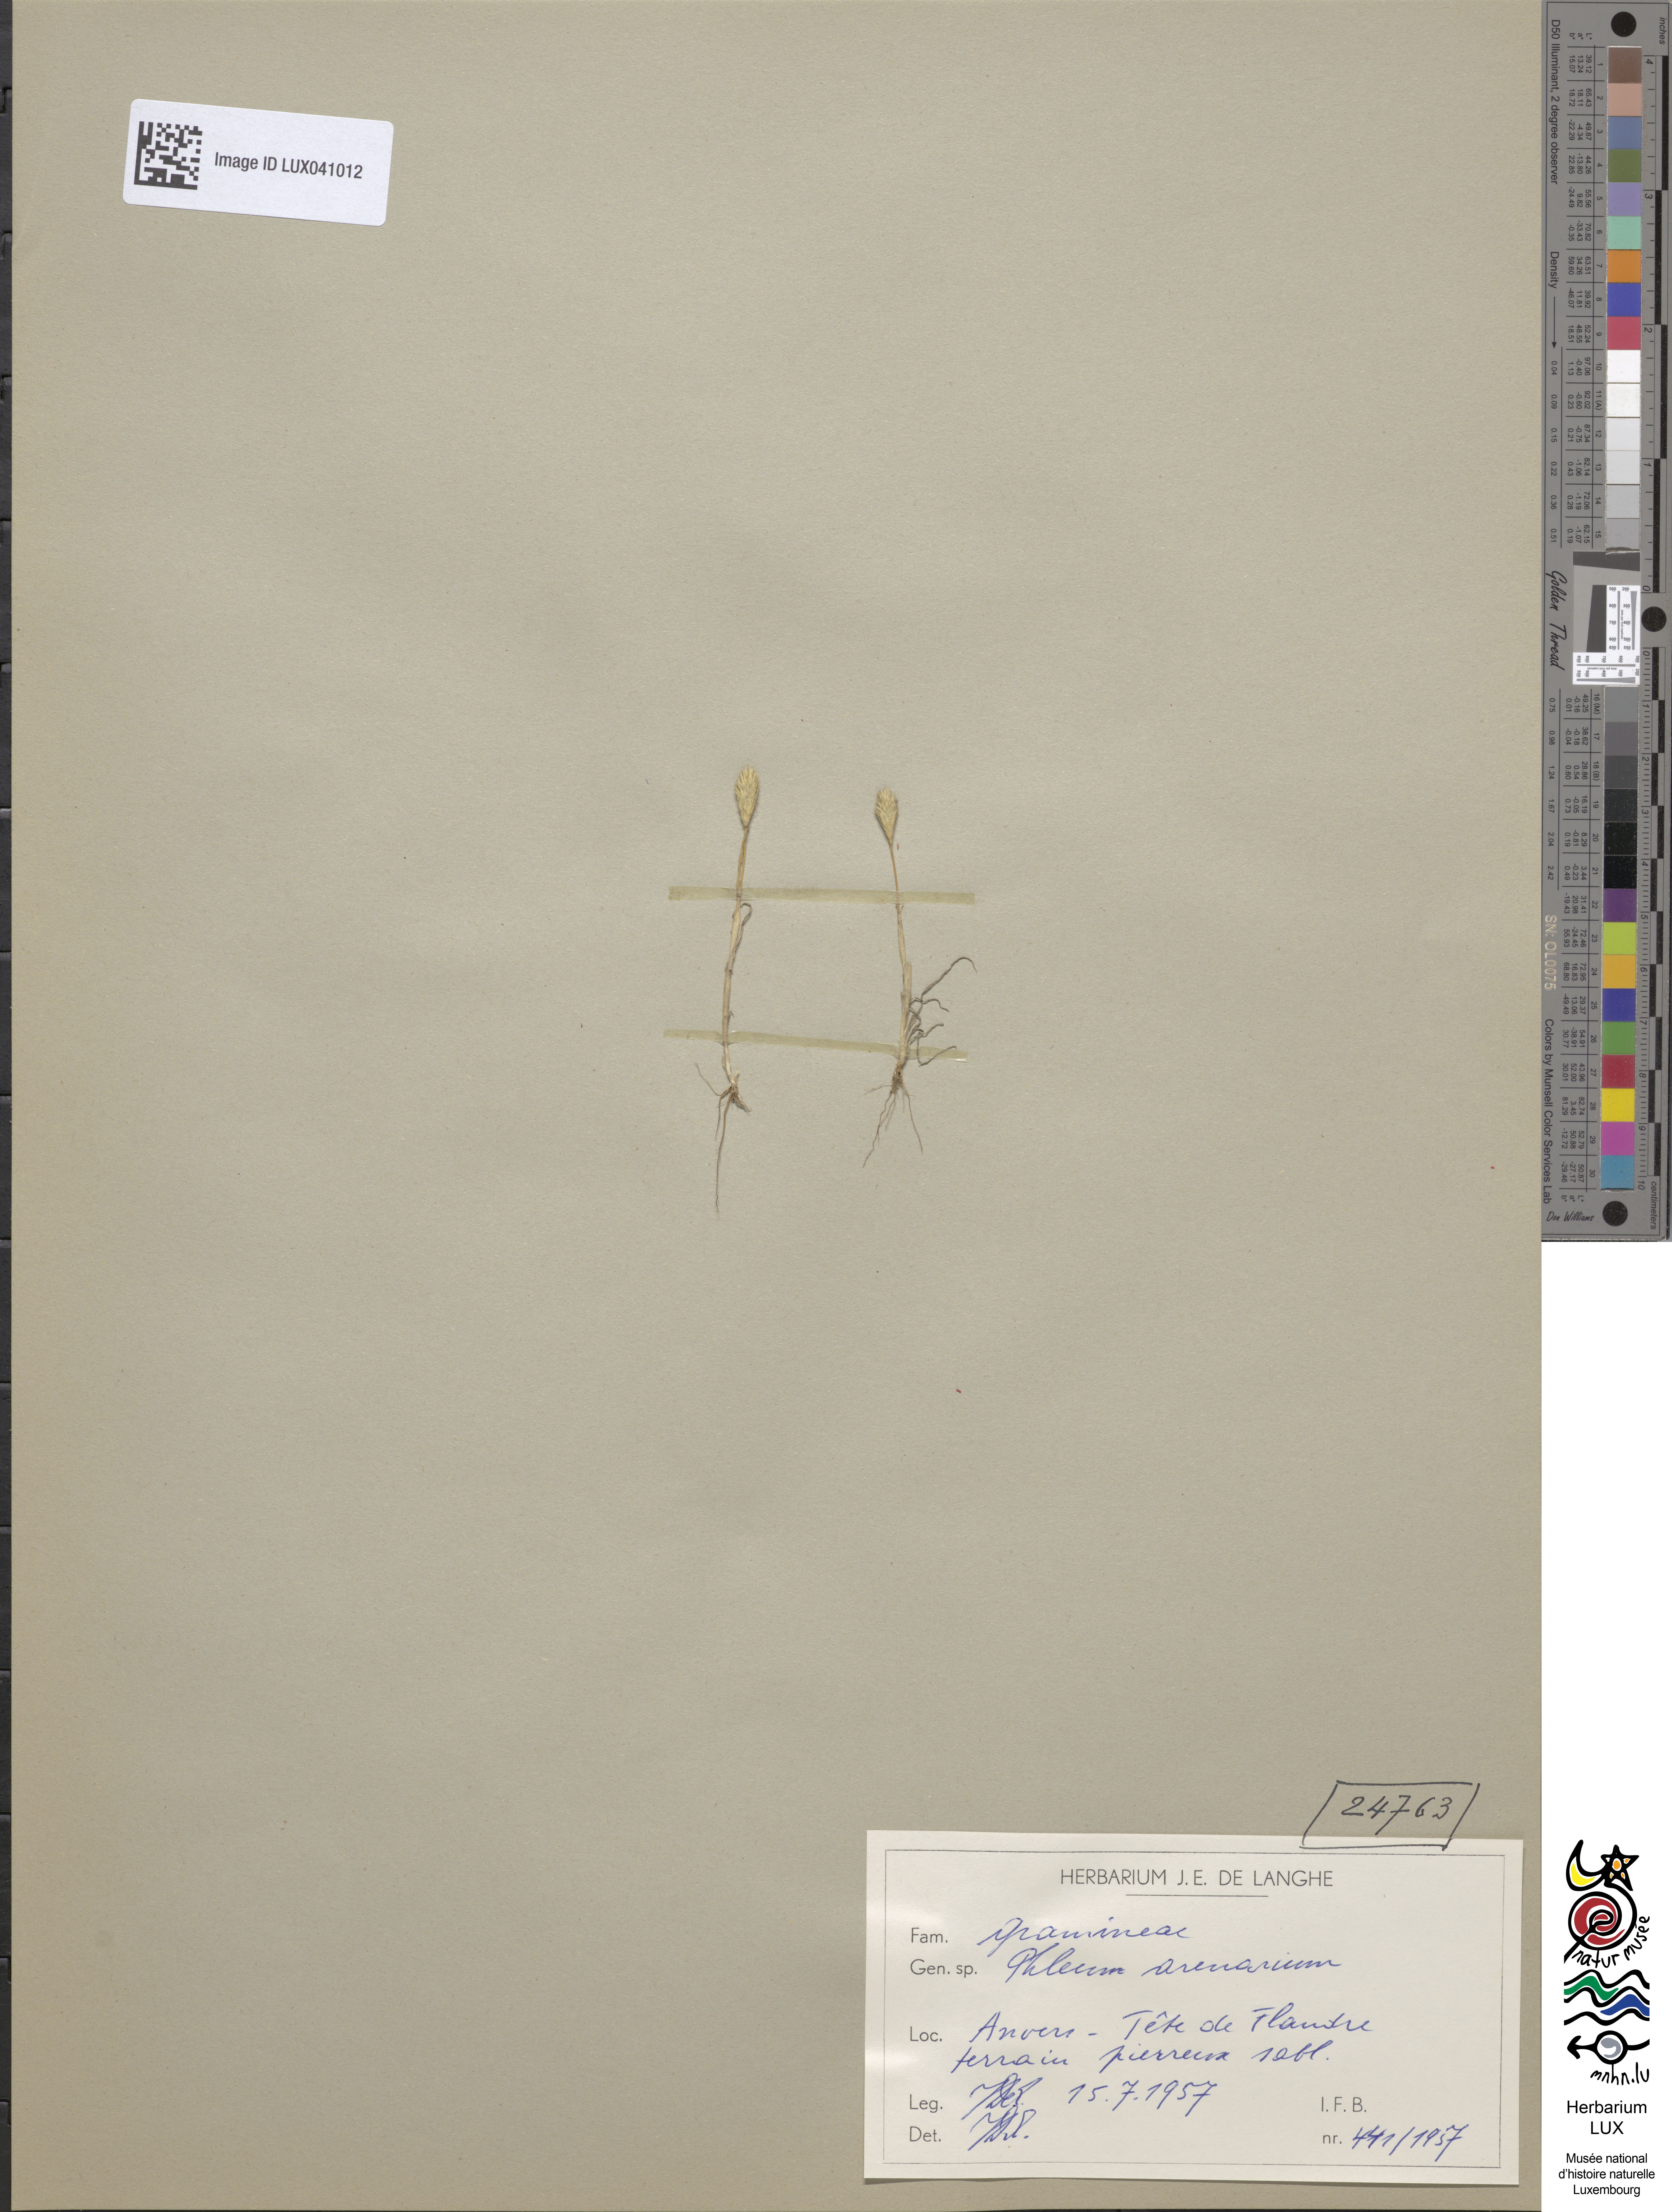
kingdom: Plantae
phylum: Tracheophyta
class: Liliopsida
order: Poales
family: Poaceae
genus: Phleum
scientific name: Phleum arenarium
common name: Sand cat's-tail
